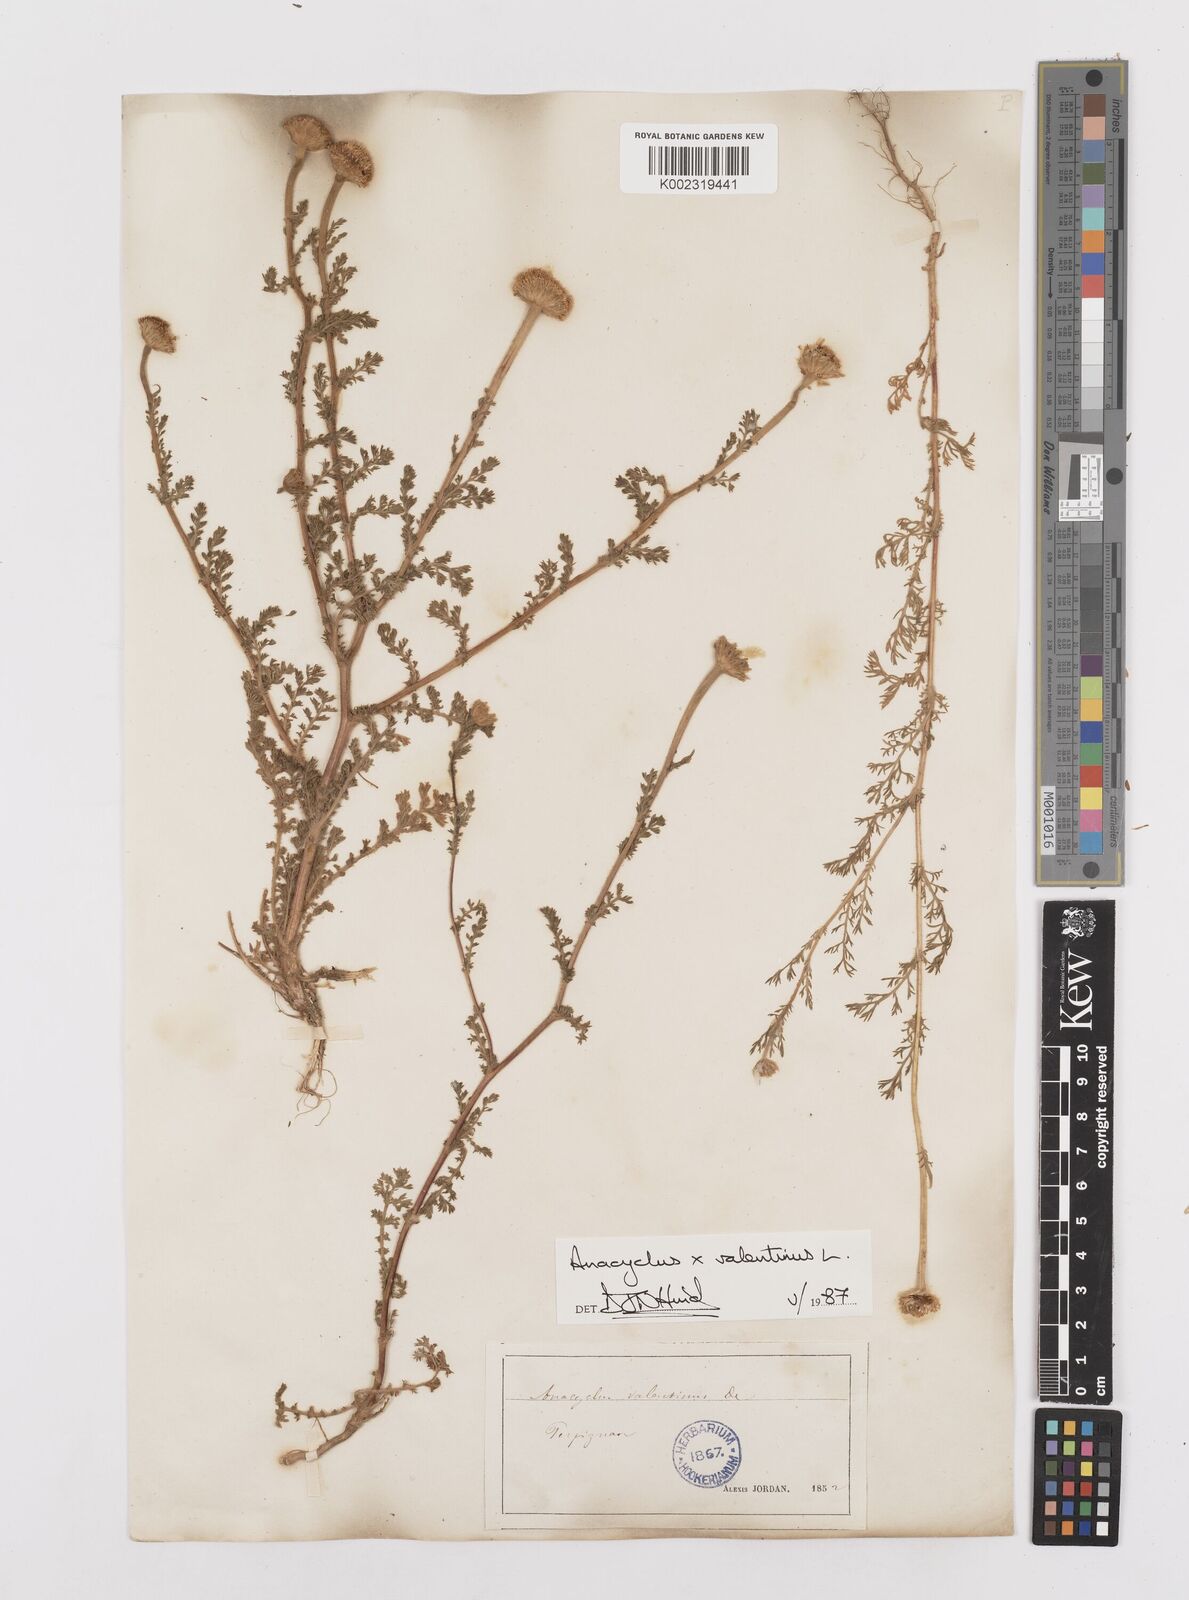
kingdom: Plantae
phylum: Tracheophyta
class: Magnoliopsida
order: Asterales
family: Asteraceae
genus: Anacyclus
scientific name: Anacyclus valentinus
